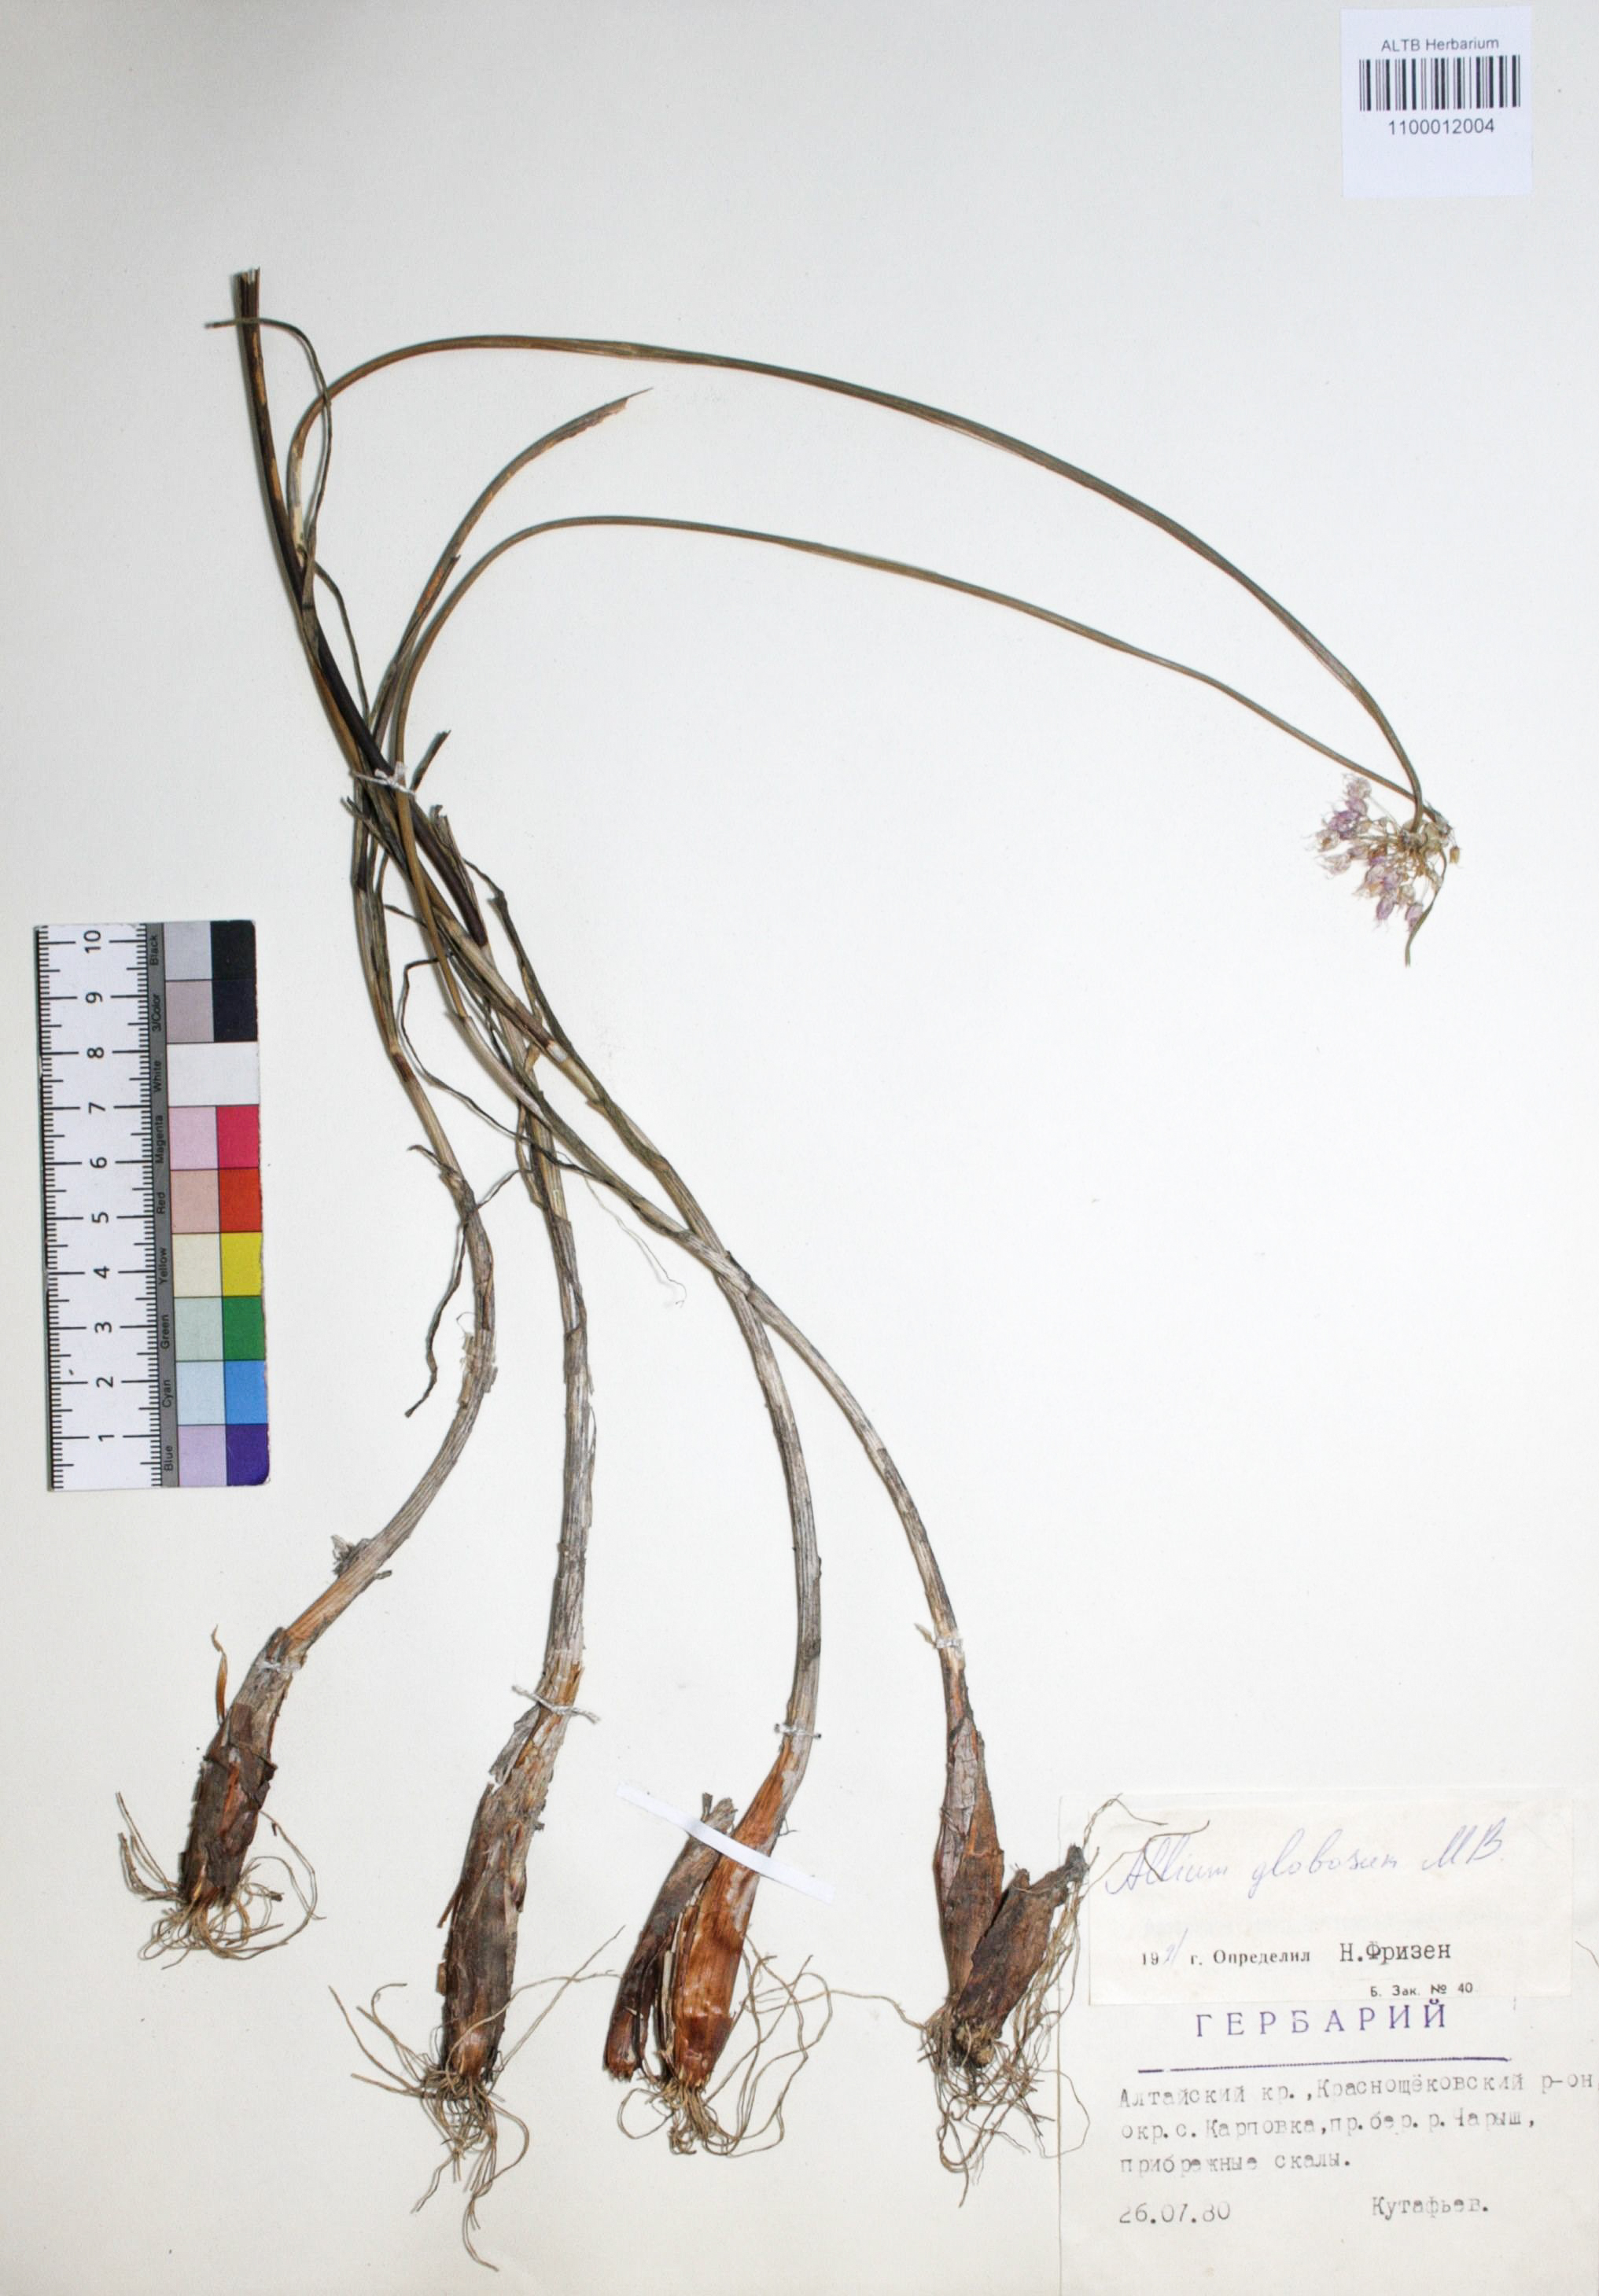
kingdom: Plantae
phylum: Tracheophyta
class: Liliopsida
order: Asparagales
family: Amaryllidaceae
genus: Allium
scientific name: Allium saxatile
